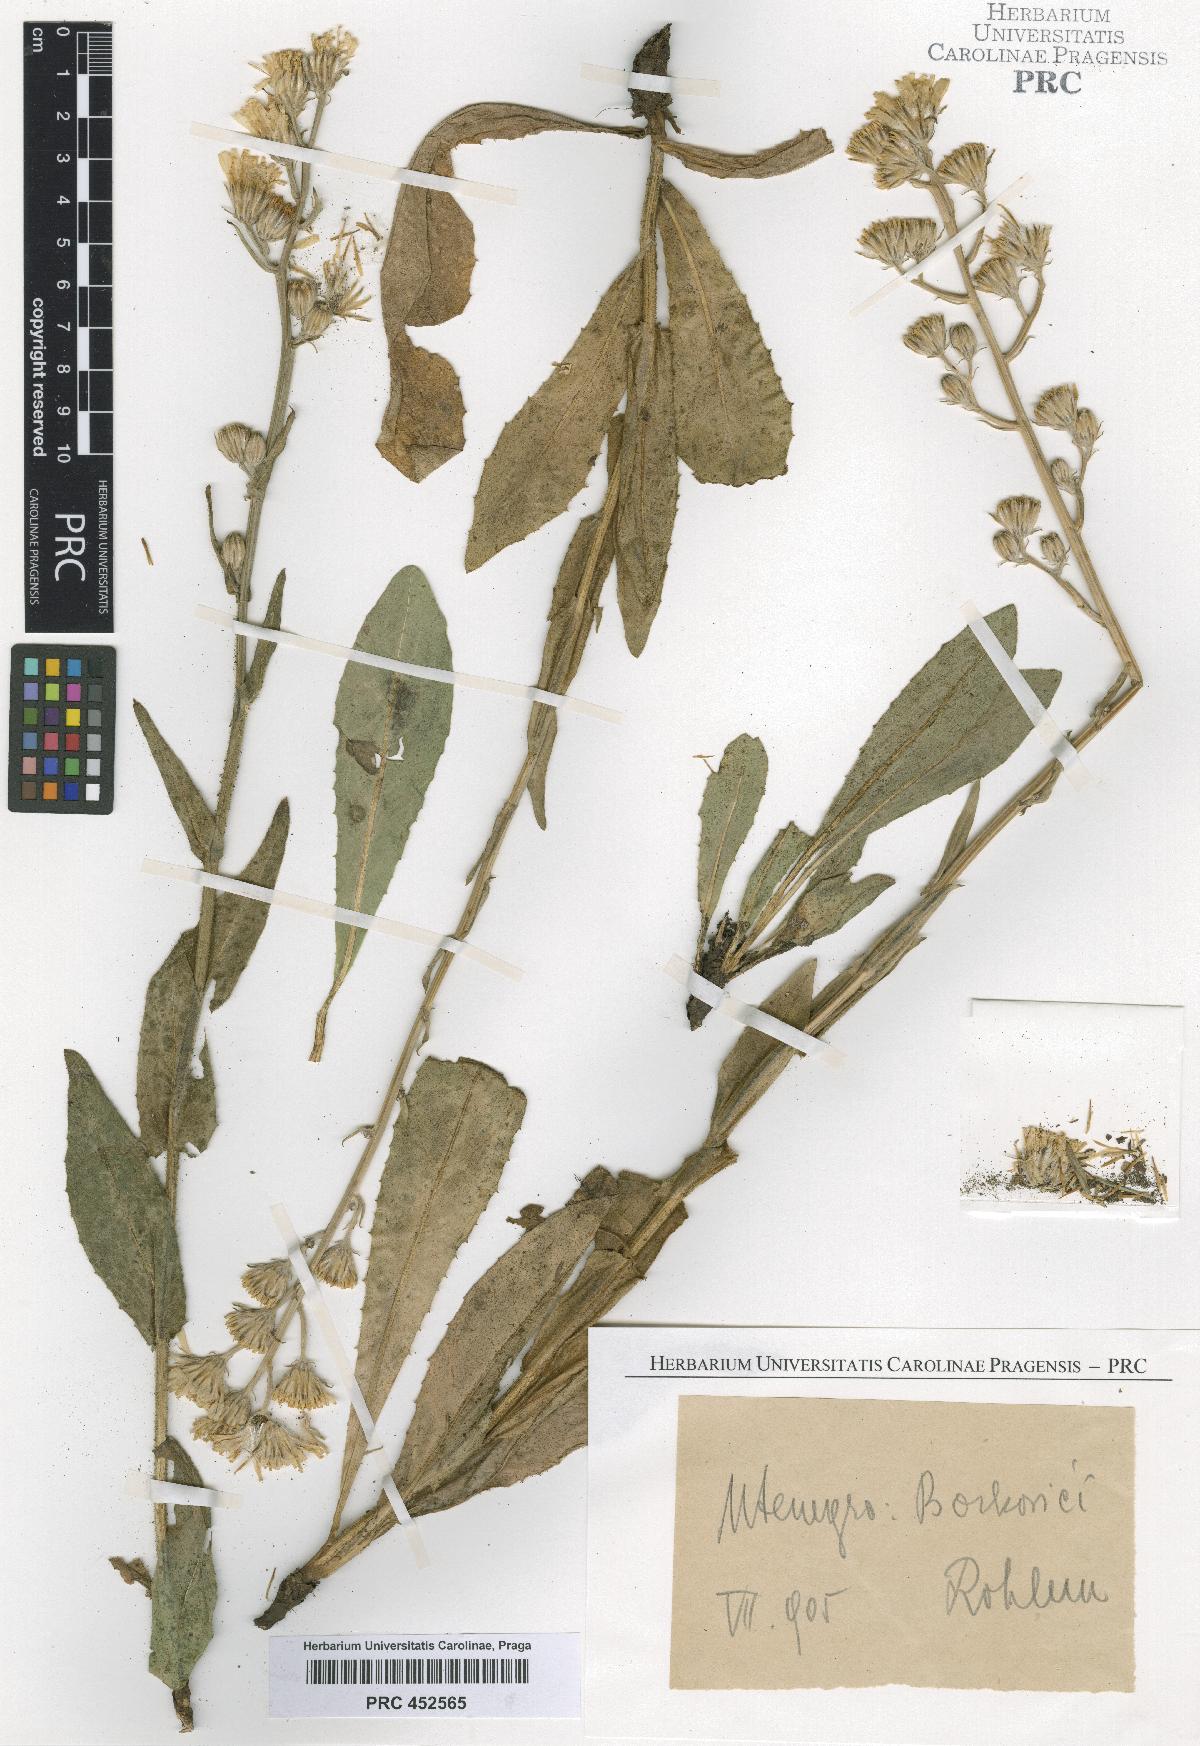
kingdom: Plantae
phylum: Tracheophyta
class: Magnoliopsida
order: Asterales
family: Asteraceae
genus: Crepis
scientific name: Crepis pannonica
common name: Pasture hawksbeard
